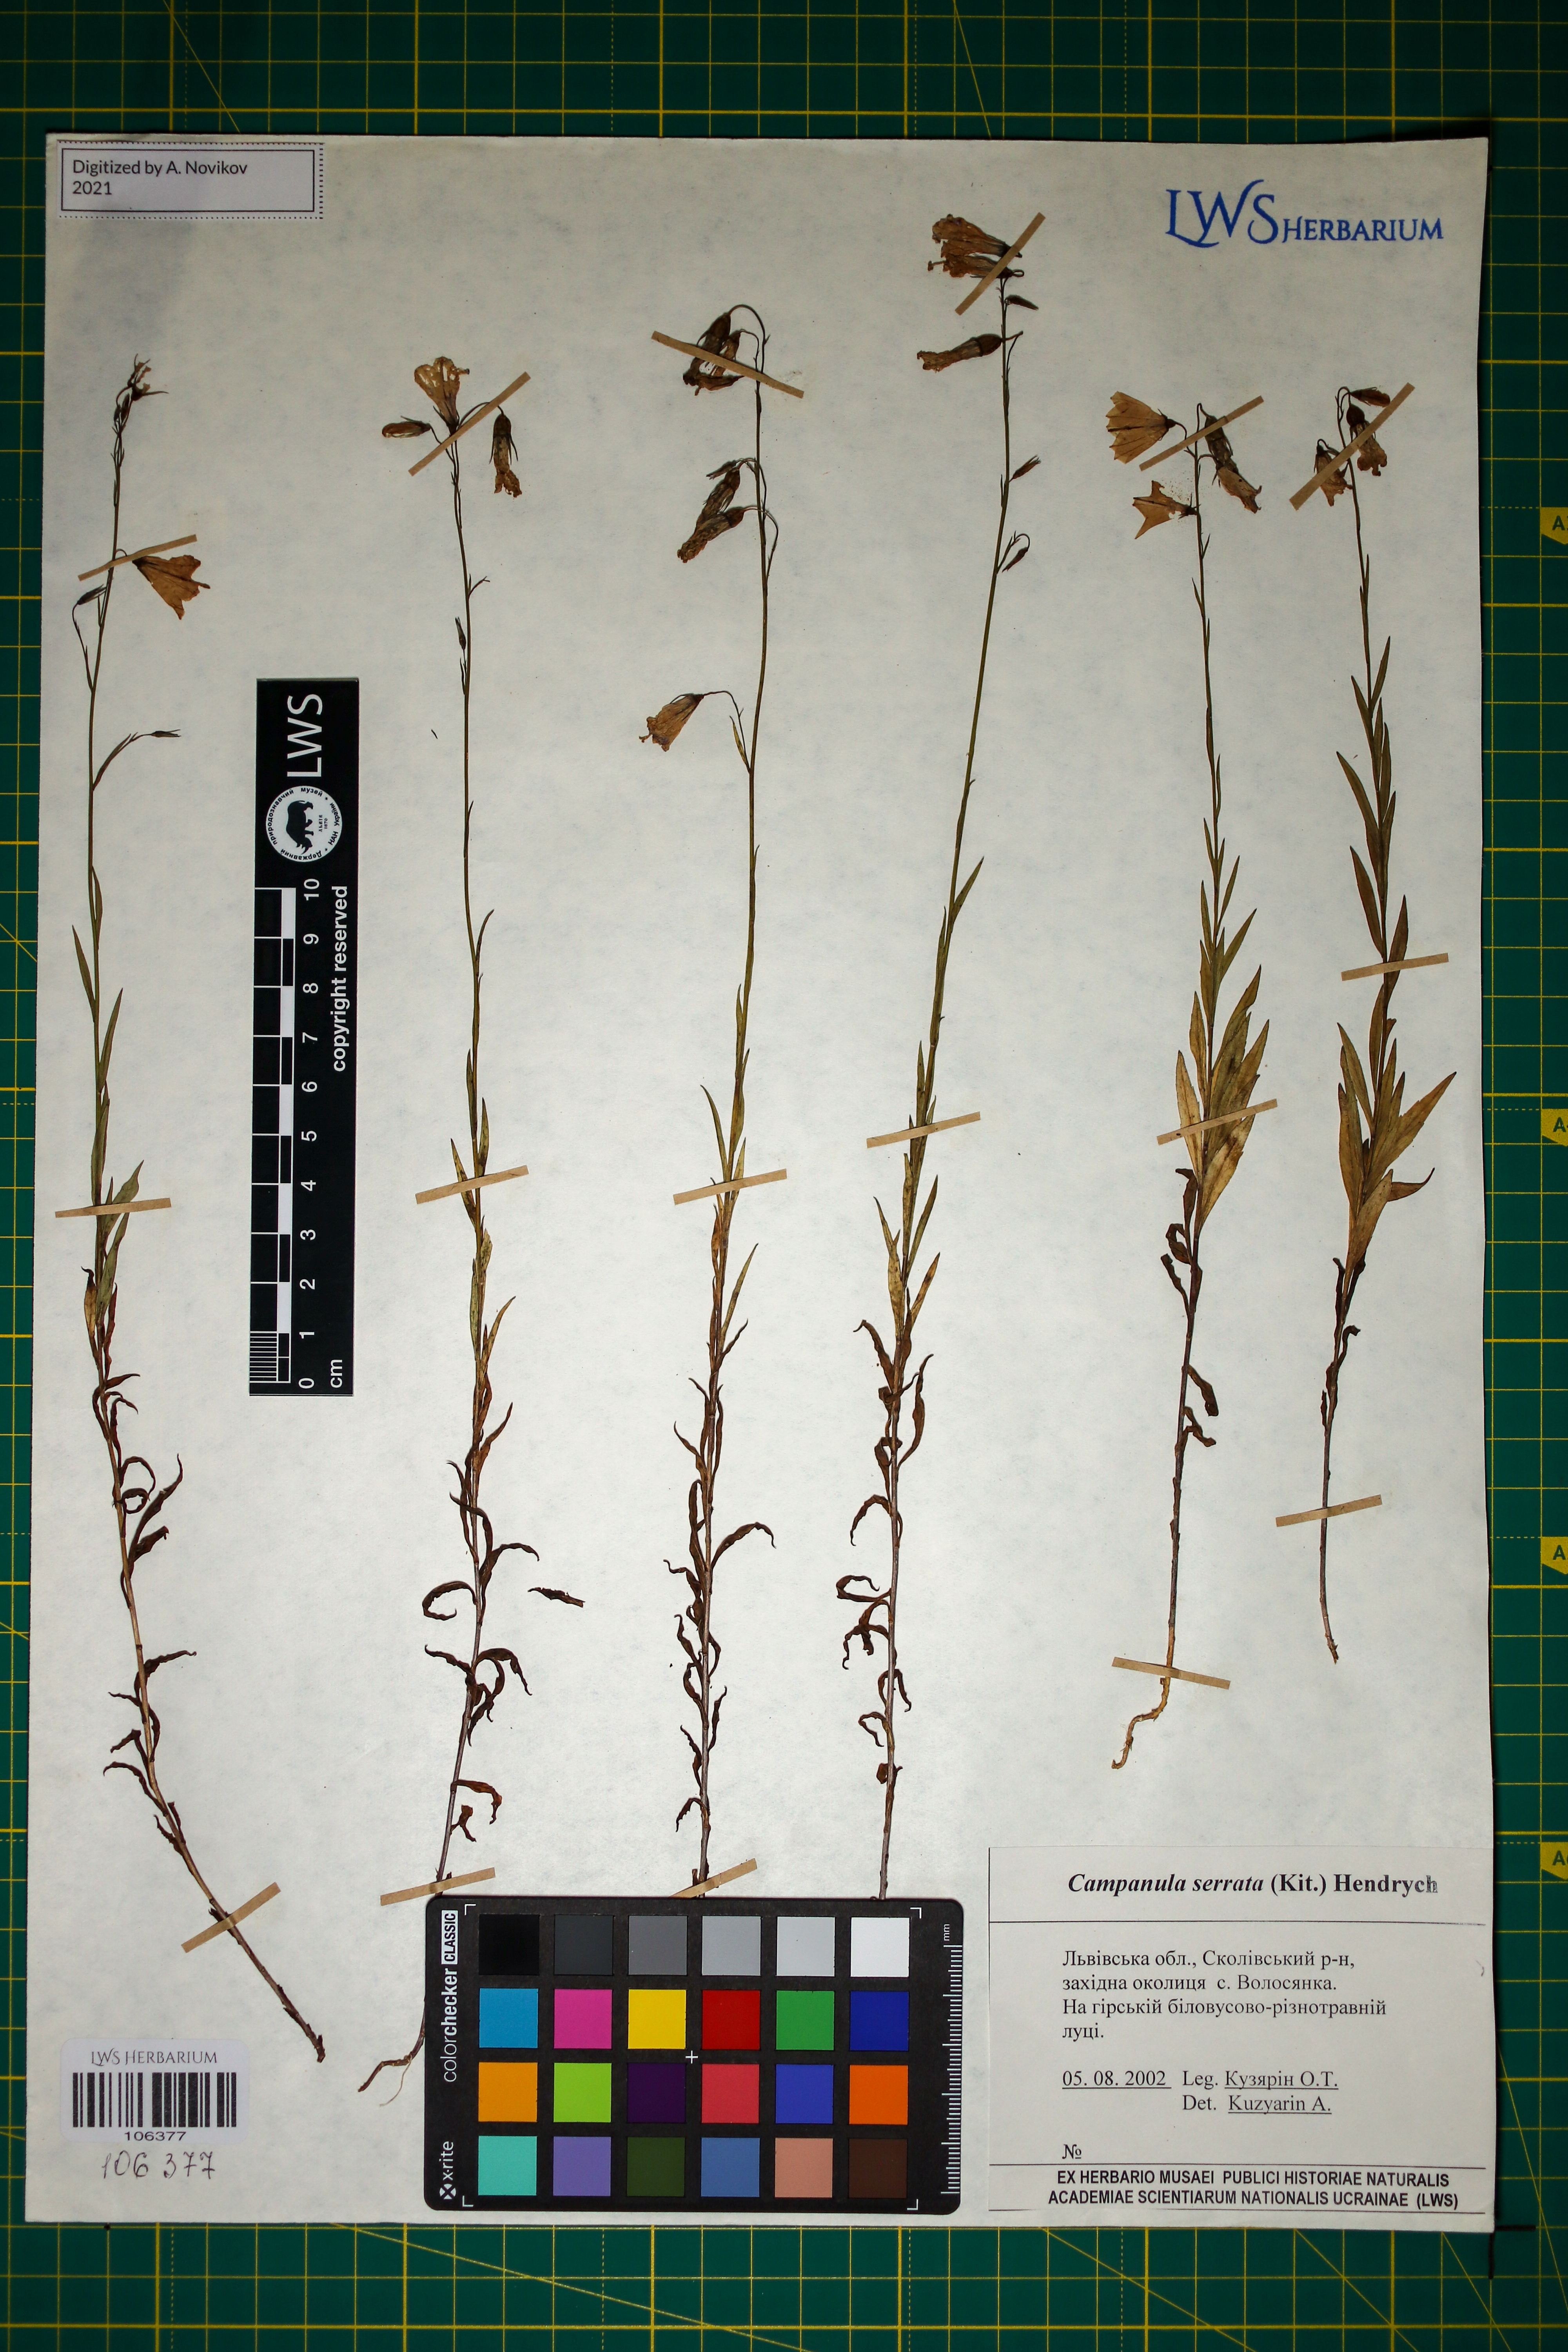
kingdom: Plantae
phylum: Tracheophyta
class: Magnoliopsida
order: Asterales
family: Campanulaceae
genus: Campanula
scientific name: Campanula serrata
